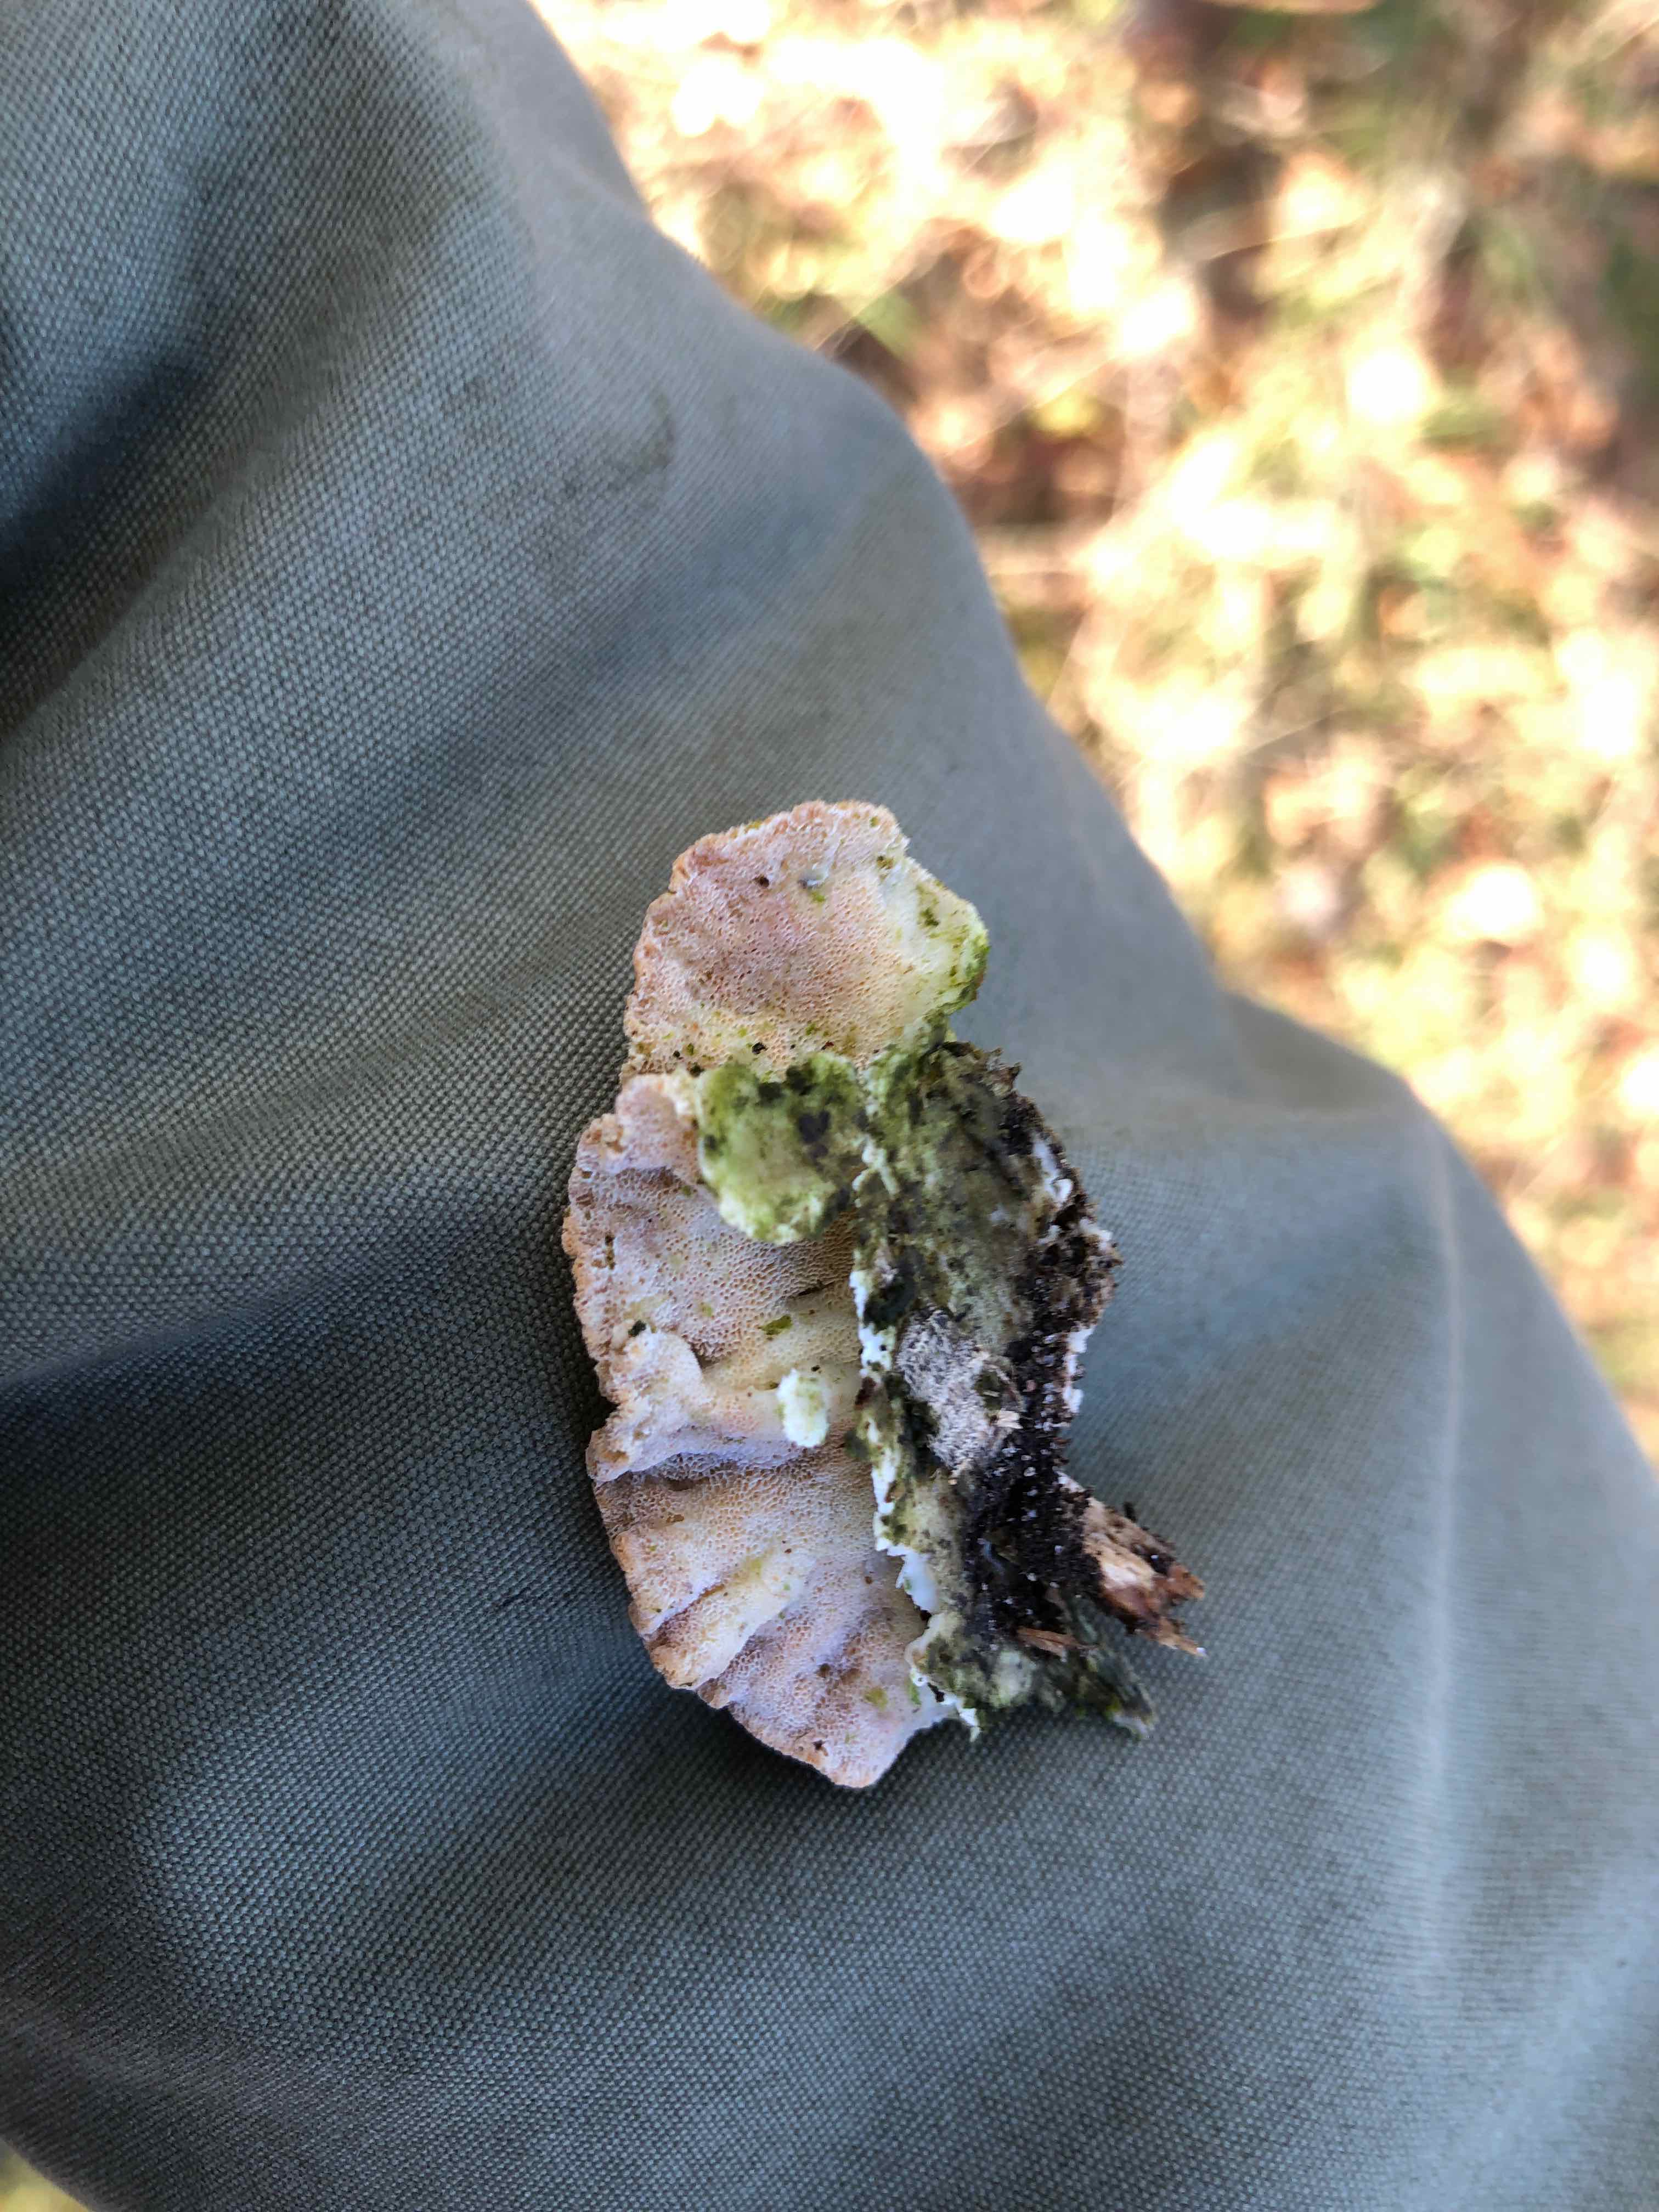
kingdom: Fungi
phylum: Basidiomycota
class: Agaricomycetes
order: Polyporales
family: Incrustoporiaceae
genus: Skeletocutis
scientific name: Skeletocutis amorpha
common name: orange krystalporesvamp
